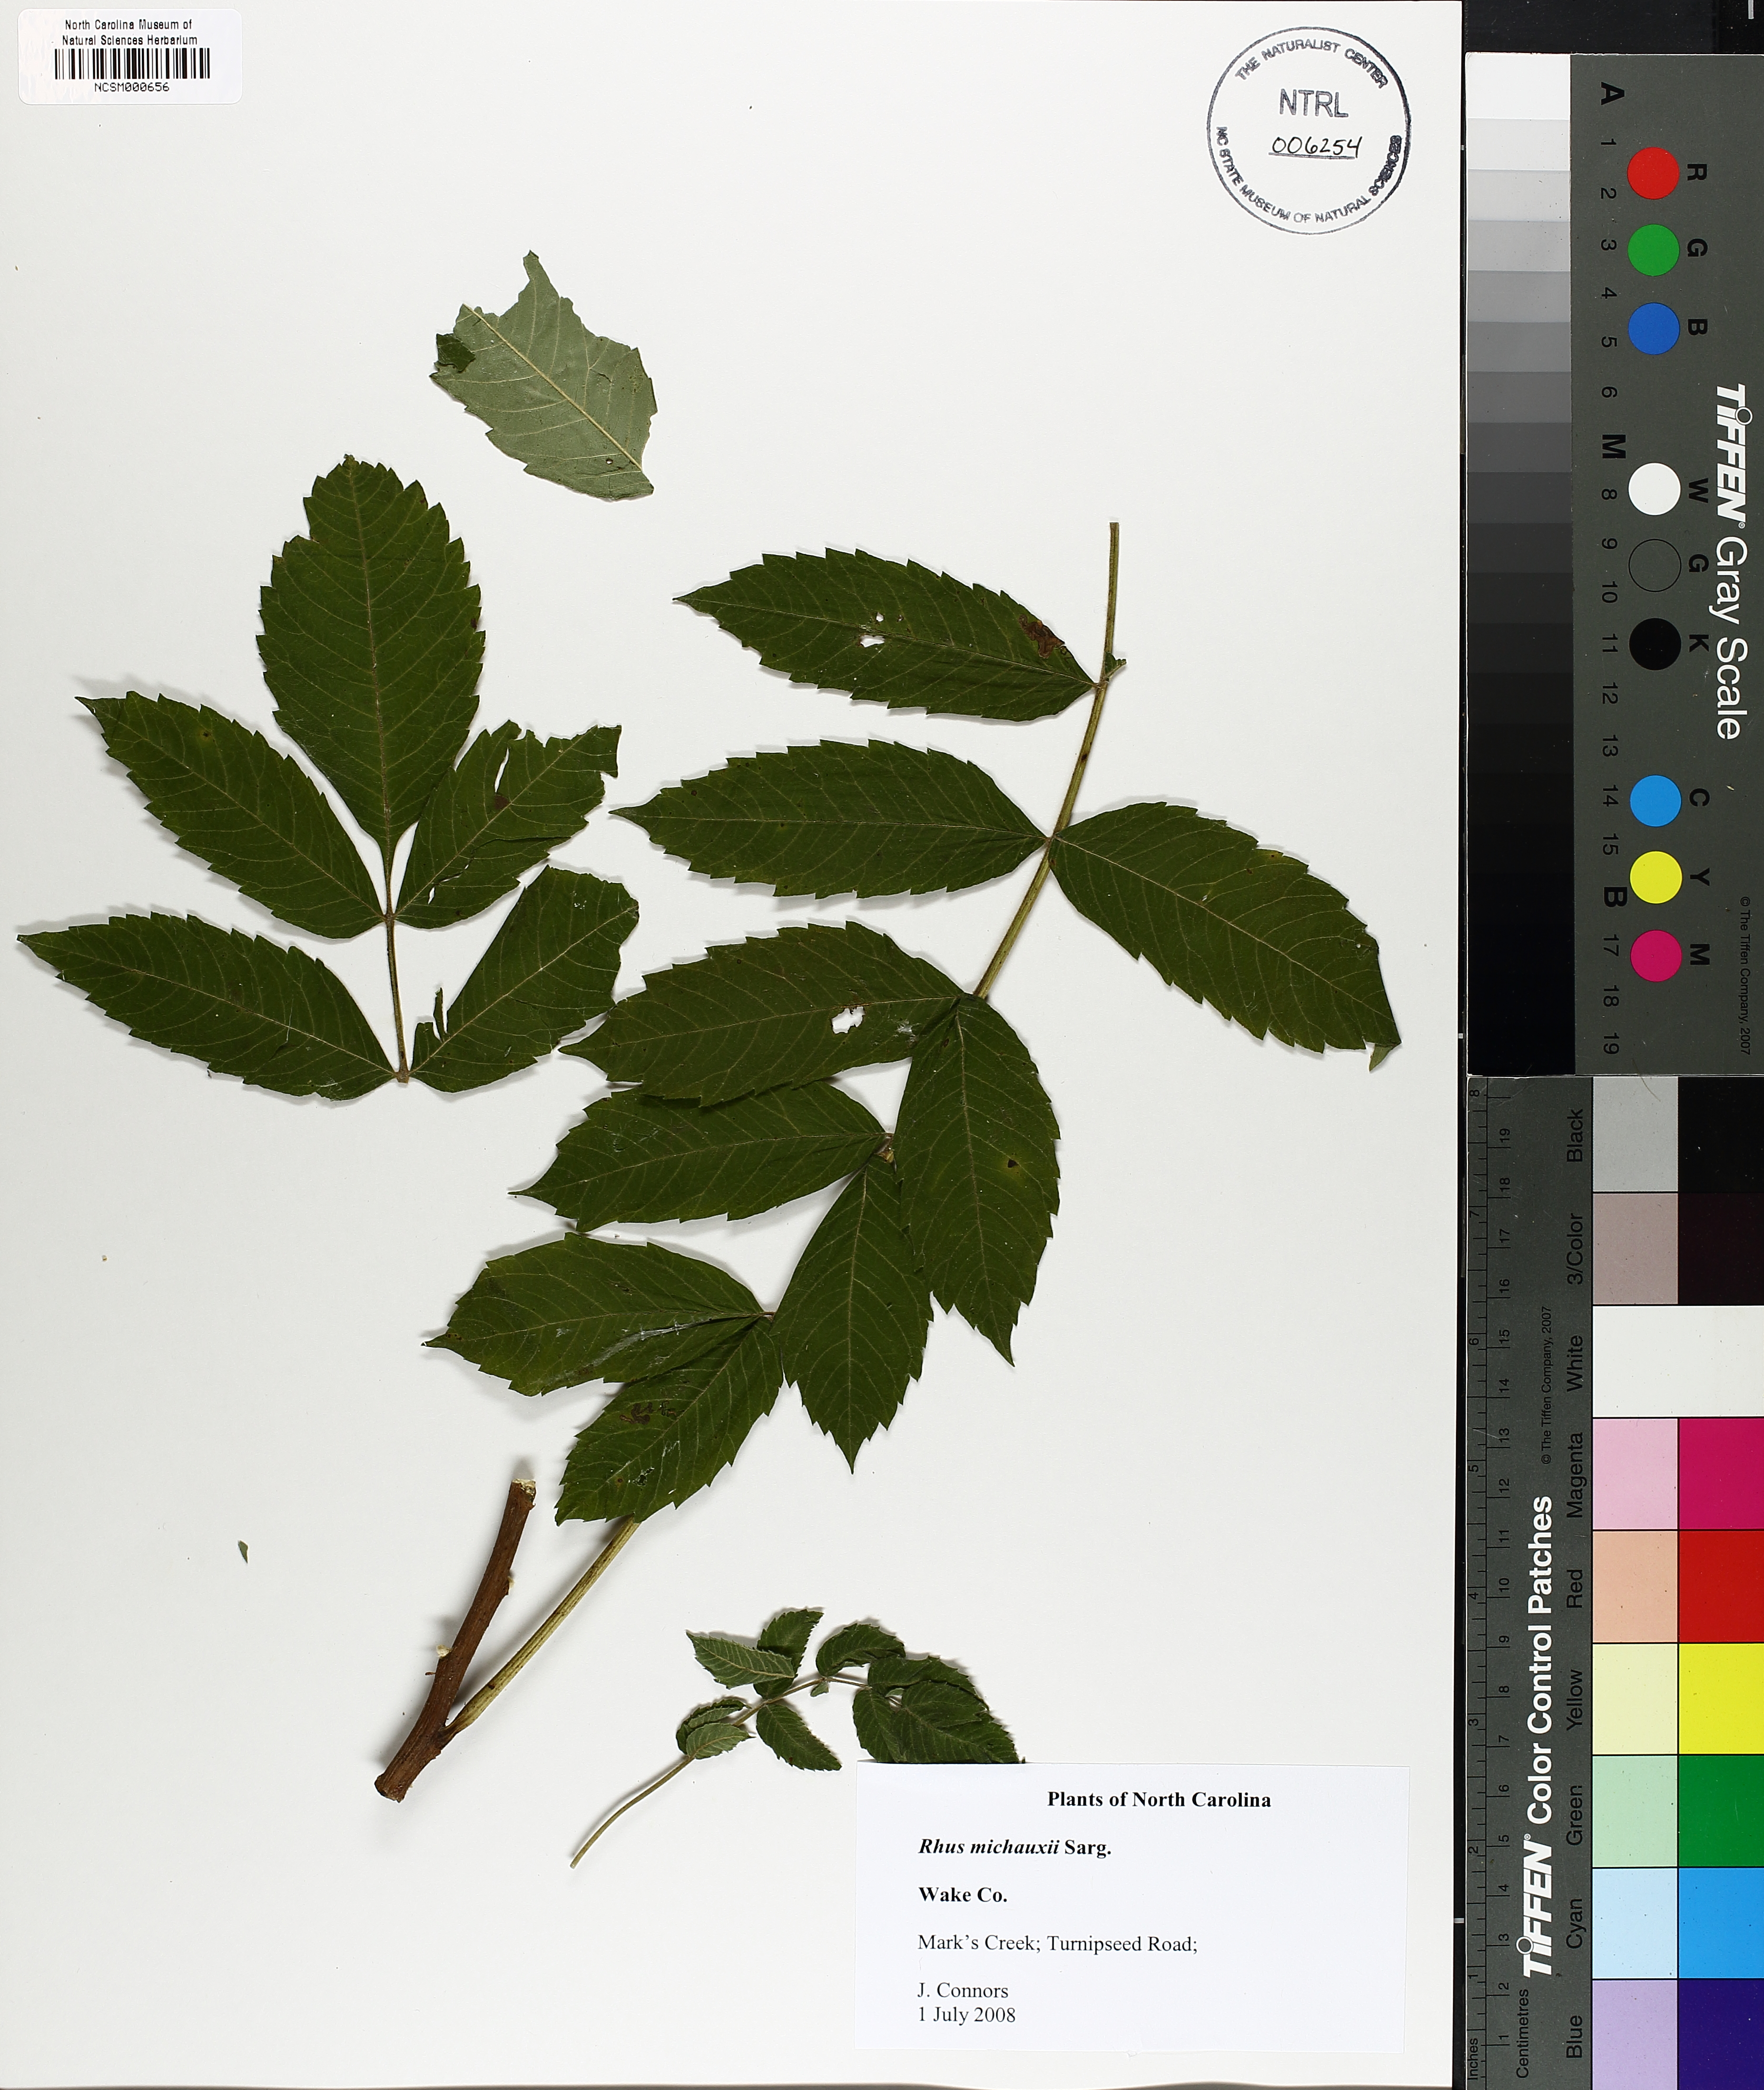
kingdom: Plantae
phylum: Tracheophyta
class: Magnoliopsida
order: Sapindales
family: Anacardiaceae
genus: Rhus
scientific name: Rhus michauxii
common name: Michaux's sumac
